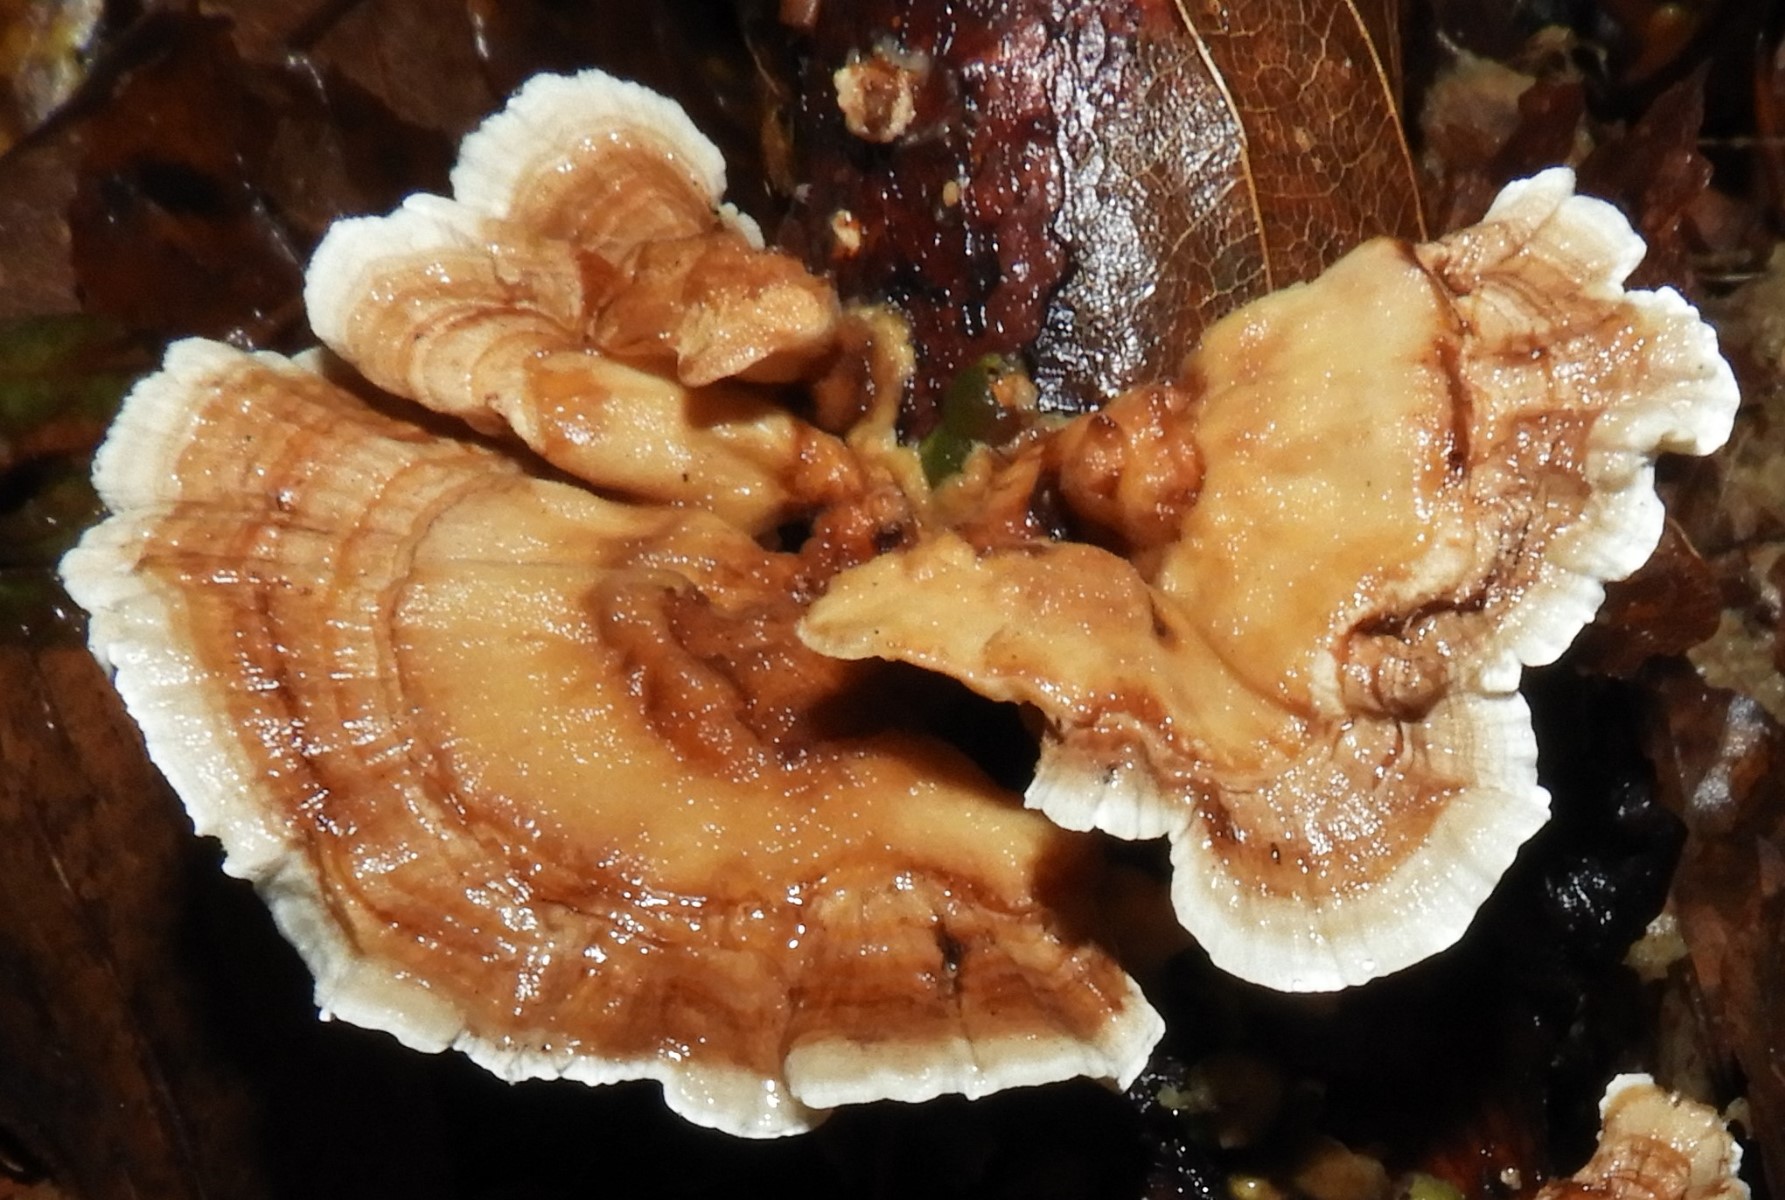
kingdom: Fungi
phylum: Basidiomycota
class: Agaricomycetes
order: Polyporales
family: Polyporaceae
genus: Trametes
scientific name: Trametes ochracea
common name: bæltet læderporesvamp
